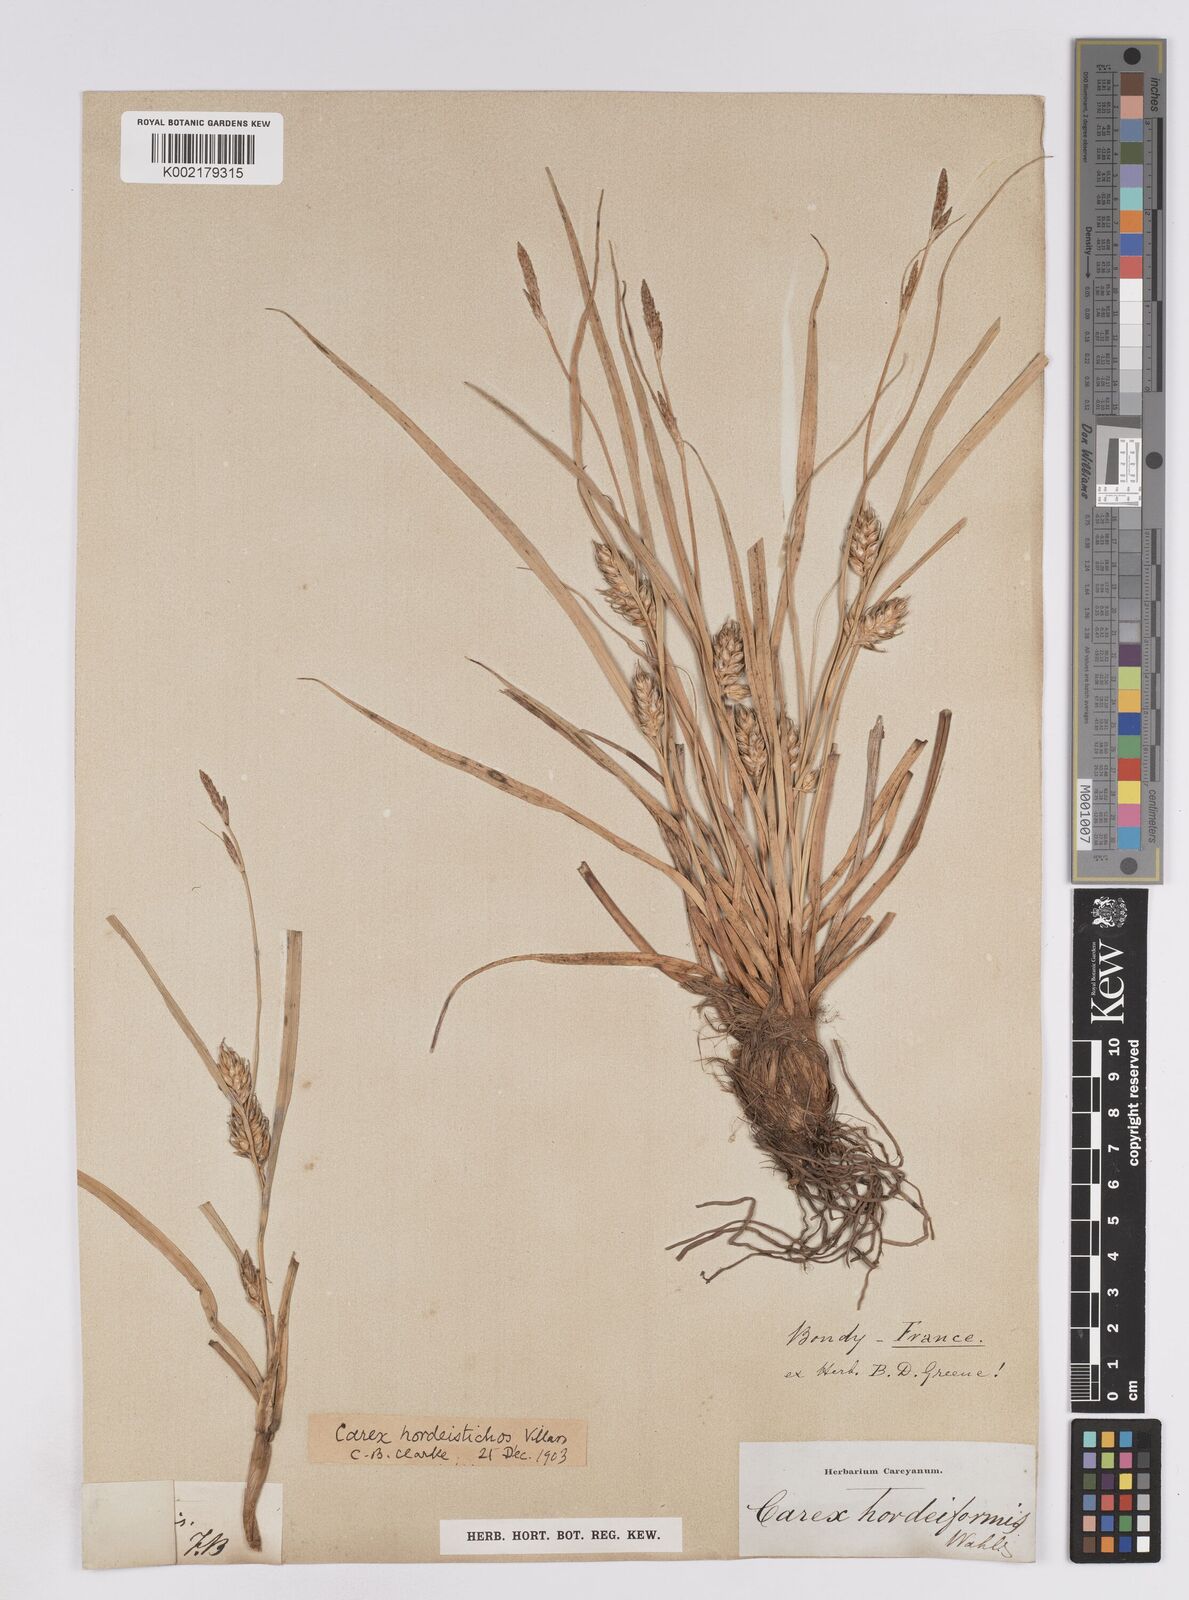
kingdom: Plantae
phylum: Tracheophyta
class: Liliopsida
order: Poales
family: Cyperaceae
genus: Carex
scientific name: Carex hordeistichos
